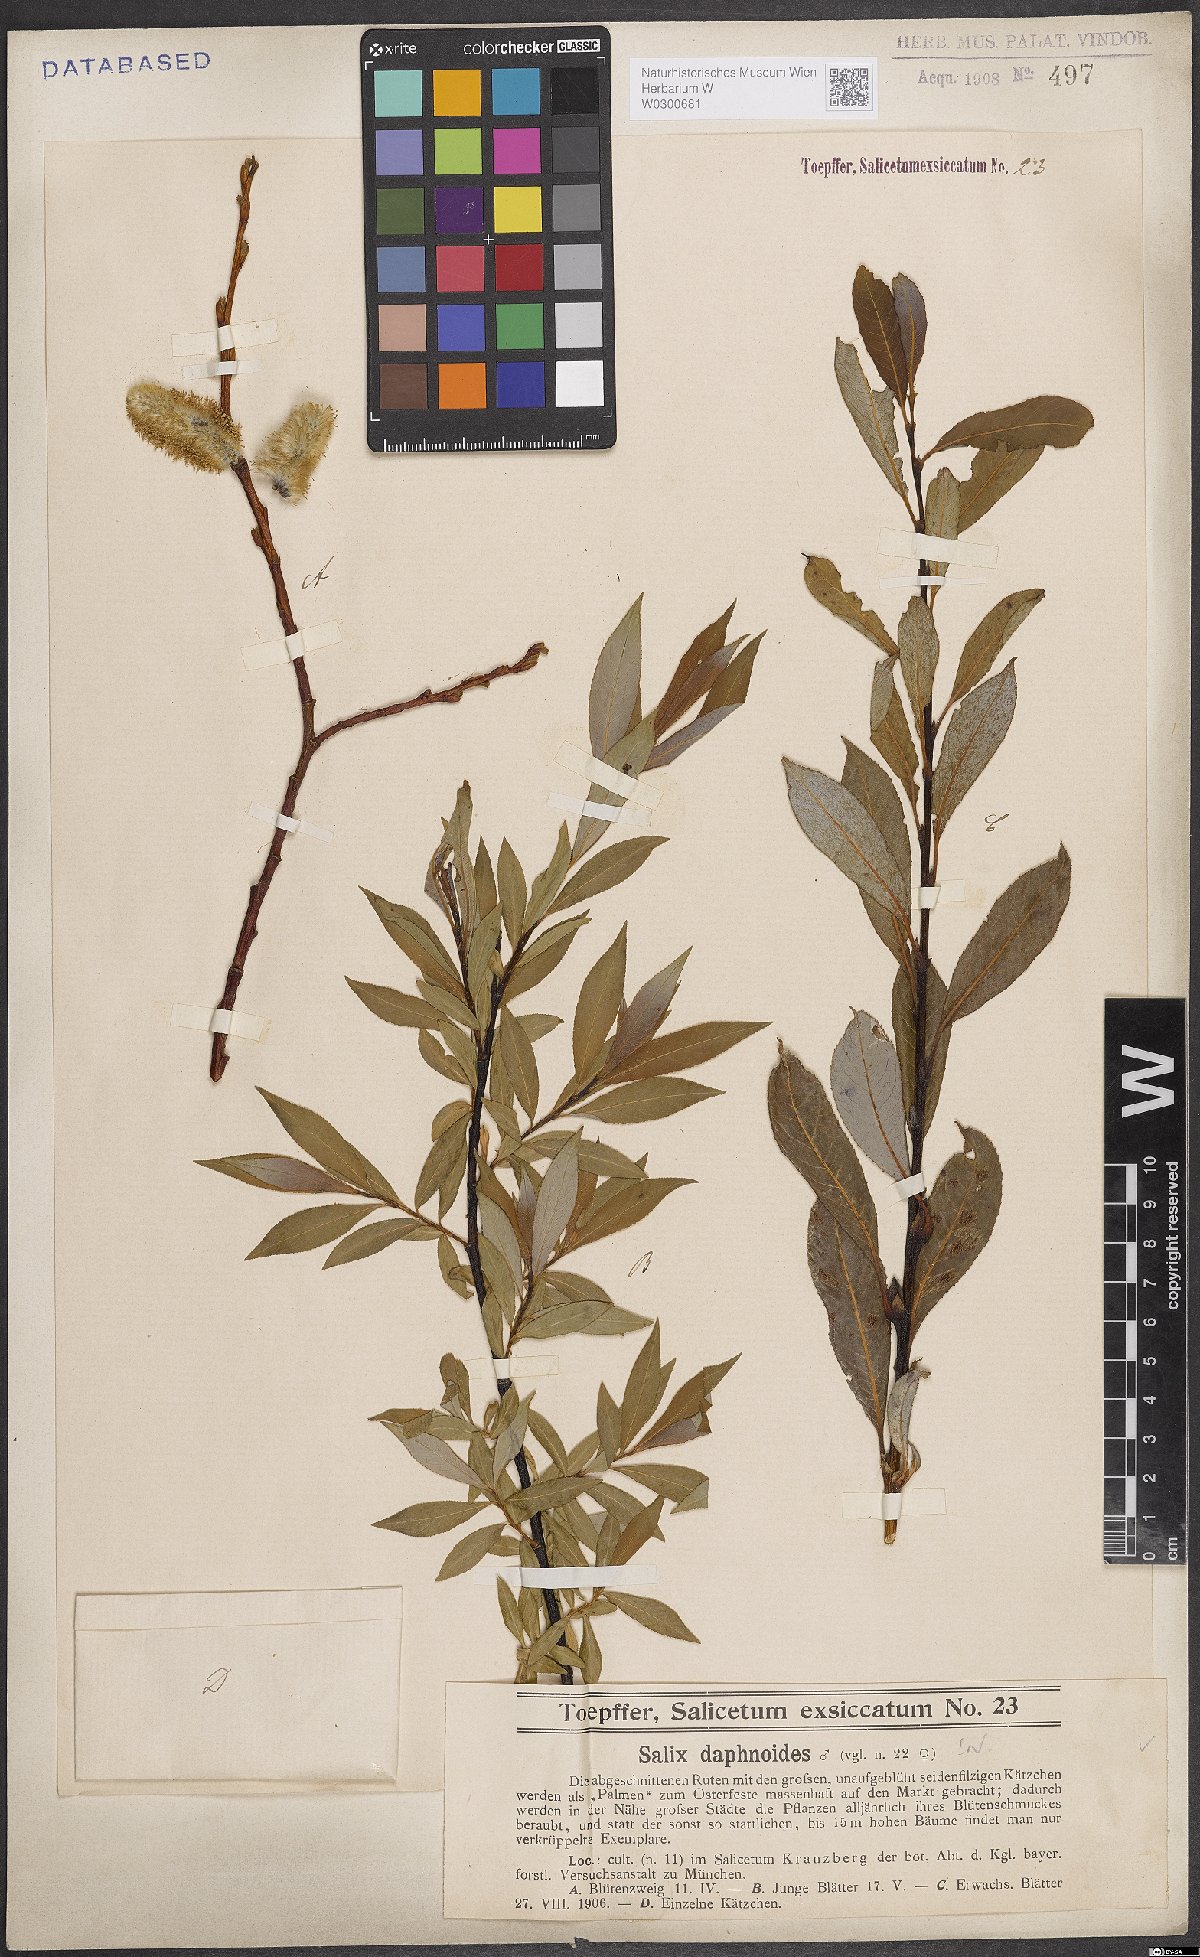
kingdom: Plantae
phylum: Tracheophyta
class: Magnoliopsida
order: Malpighiales
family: Salicaceae
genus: Salix
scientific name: Salix daphnoides
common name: European violet-willow
